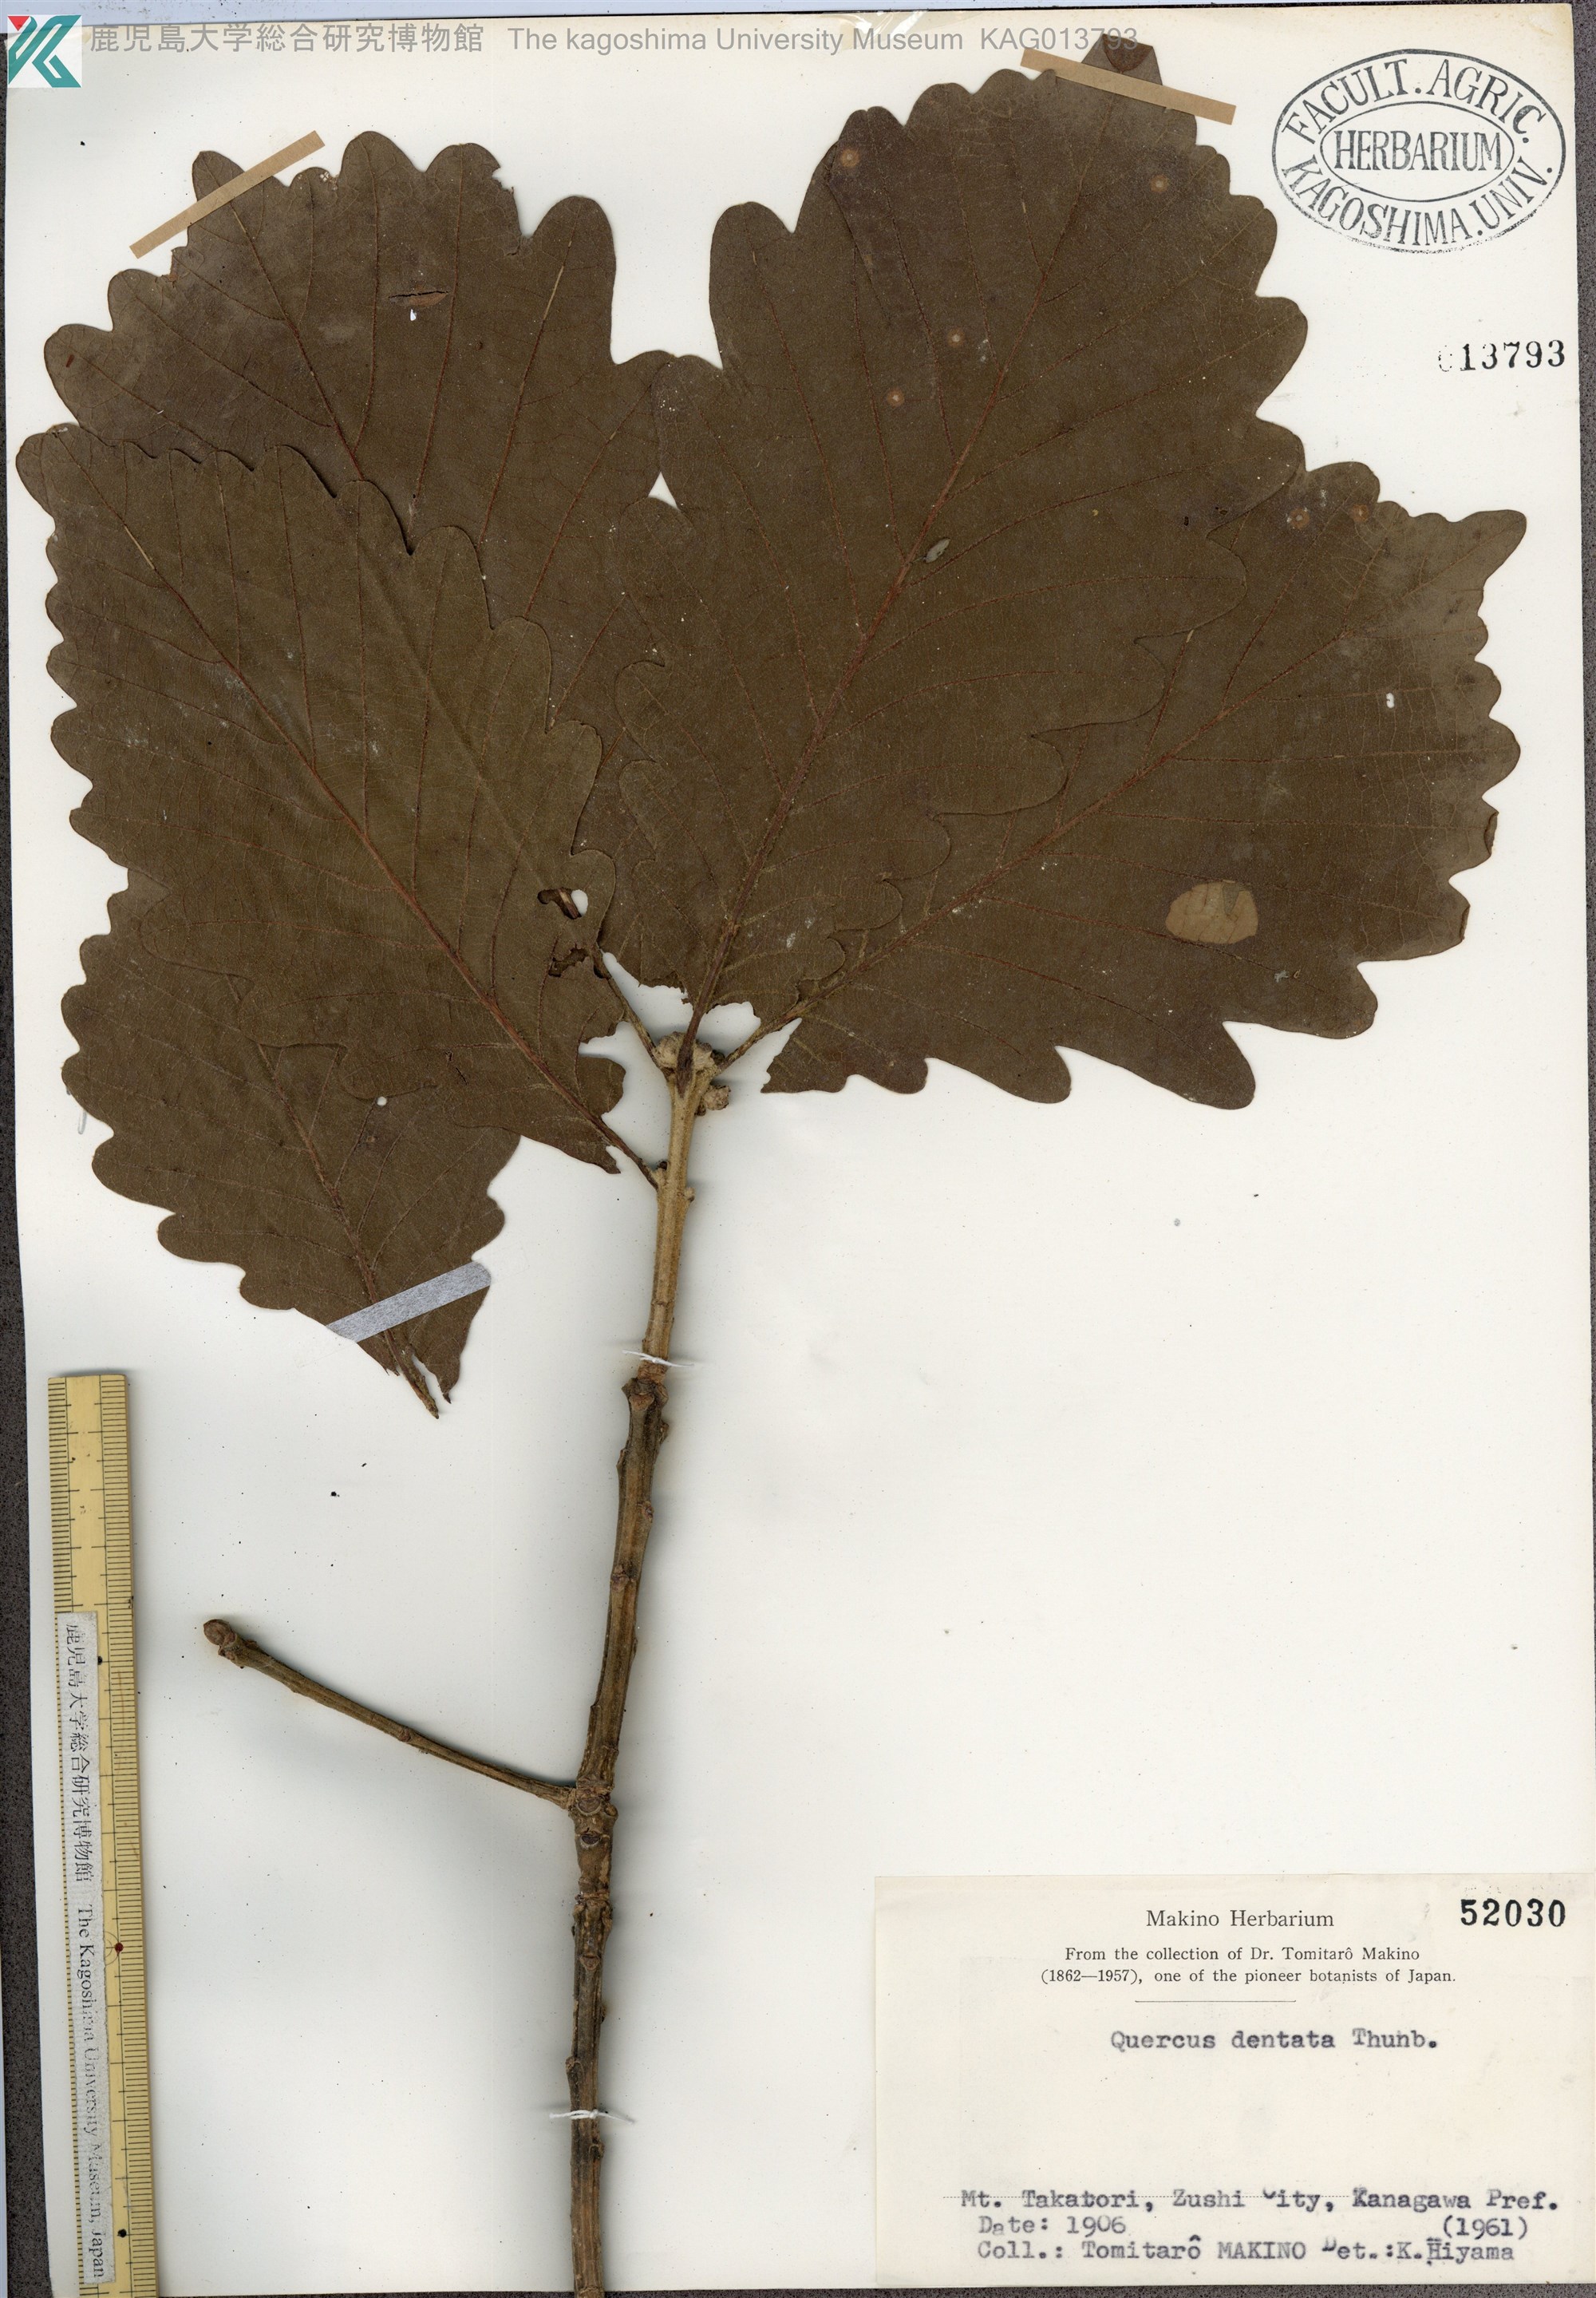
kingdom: Plantae
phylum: Tracheophyta
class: Magnoliopsida
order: Fagales
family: Fagaceae
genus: Quercus
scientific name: Quercus dentata
